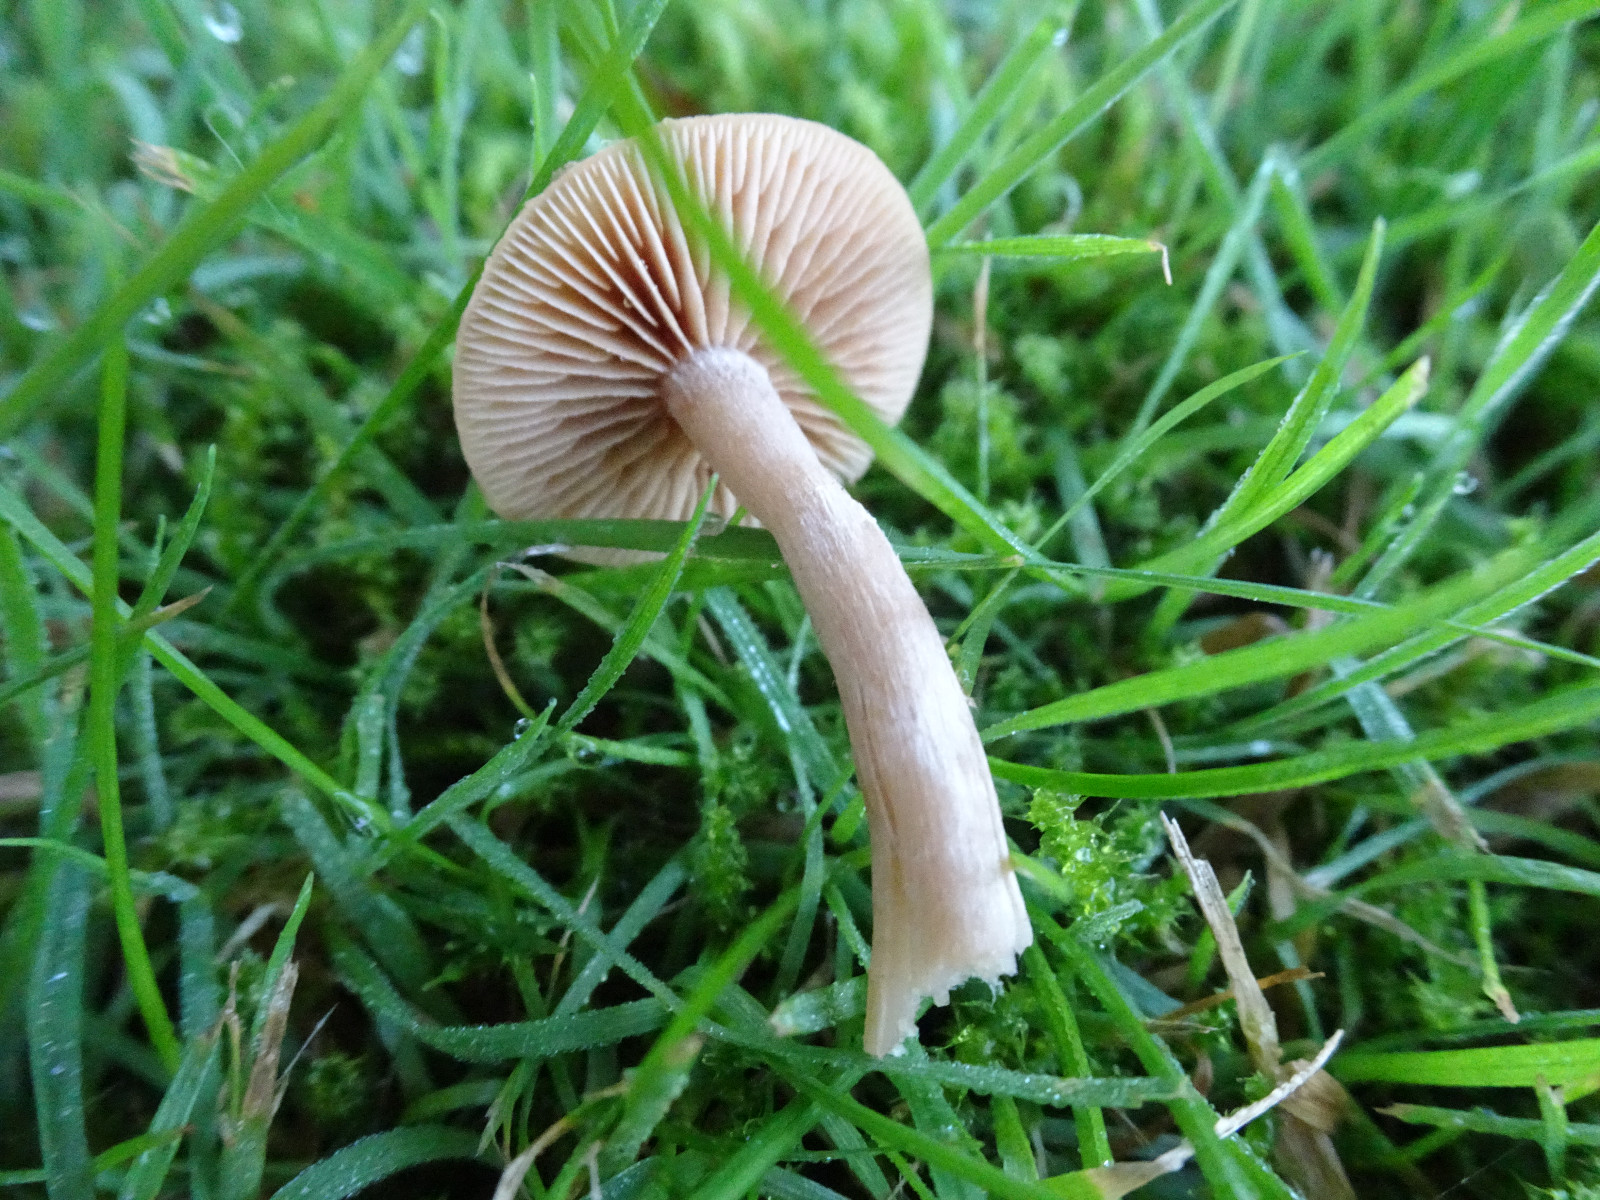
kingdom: Fungi
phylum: Basidiomycota
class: Agaricomycetes
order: Agaricales
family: Tubariaceae
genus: Tubaria
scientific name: Tubaria furfuracea
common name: kliddet fnughat
